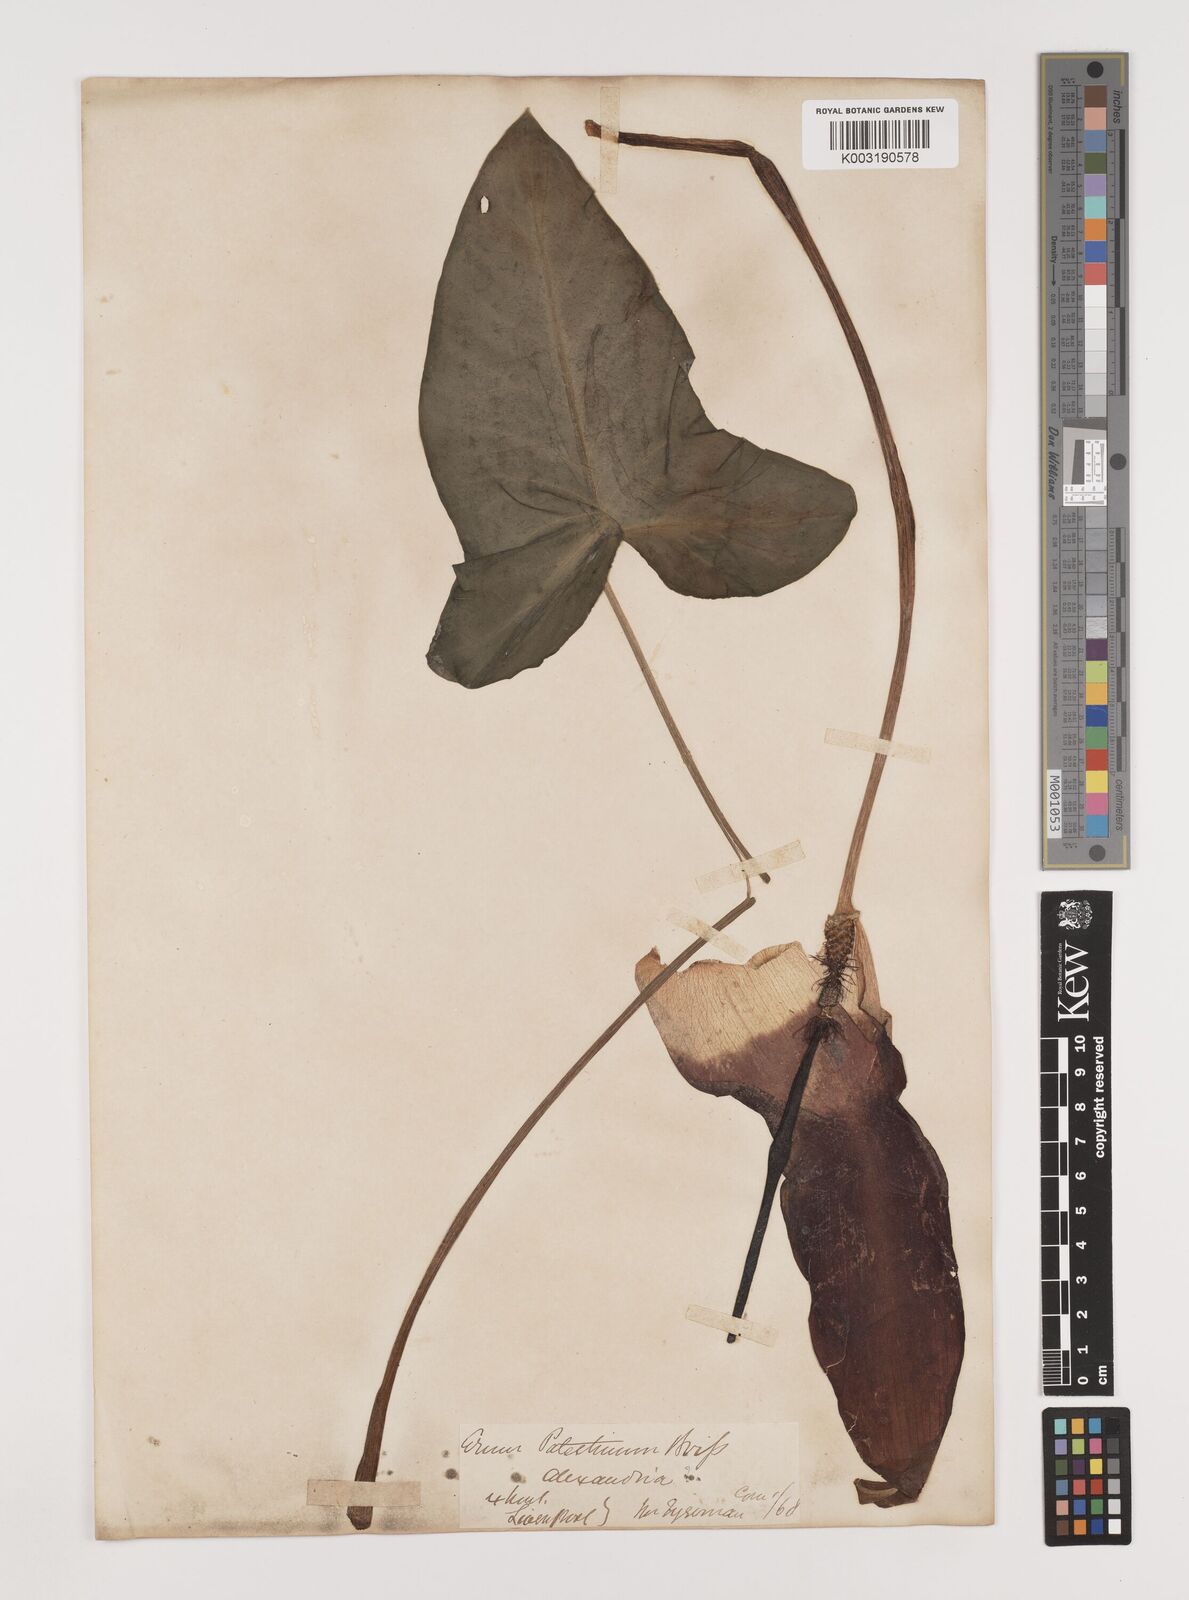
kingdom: Plantae
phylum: Tracheophyta
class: Liliopsida
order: Alismatales
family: Araceae
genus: Arum
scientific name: Arum palaestinum
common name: Solomon's lily
